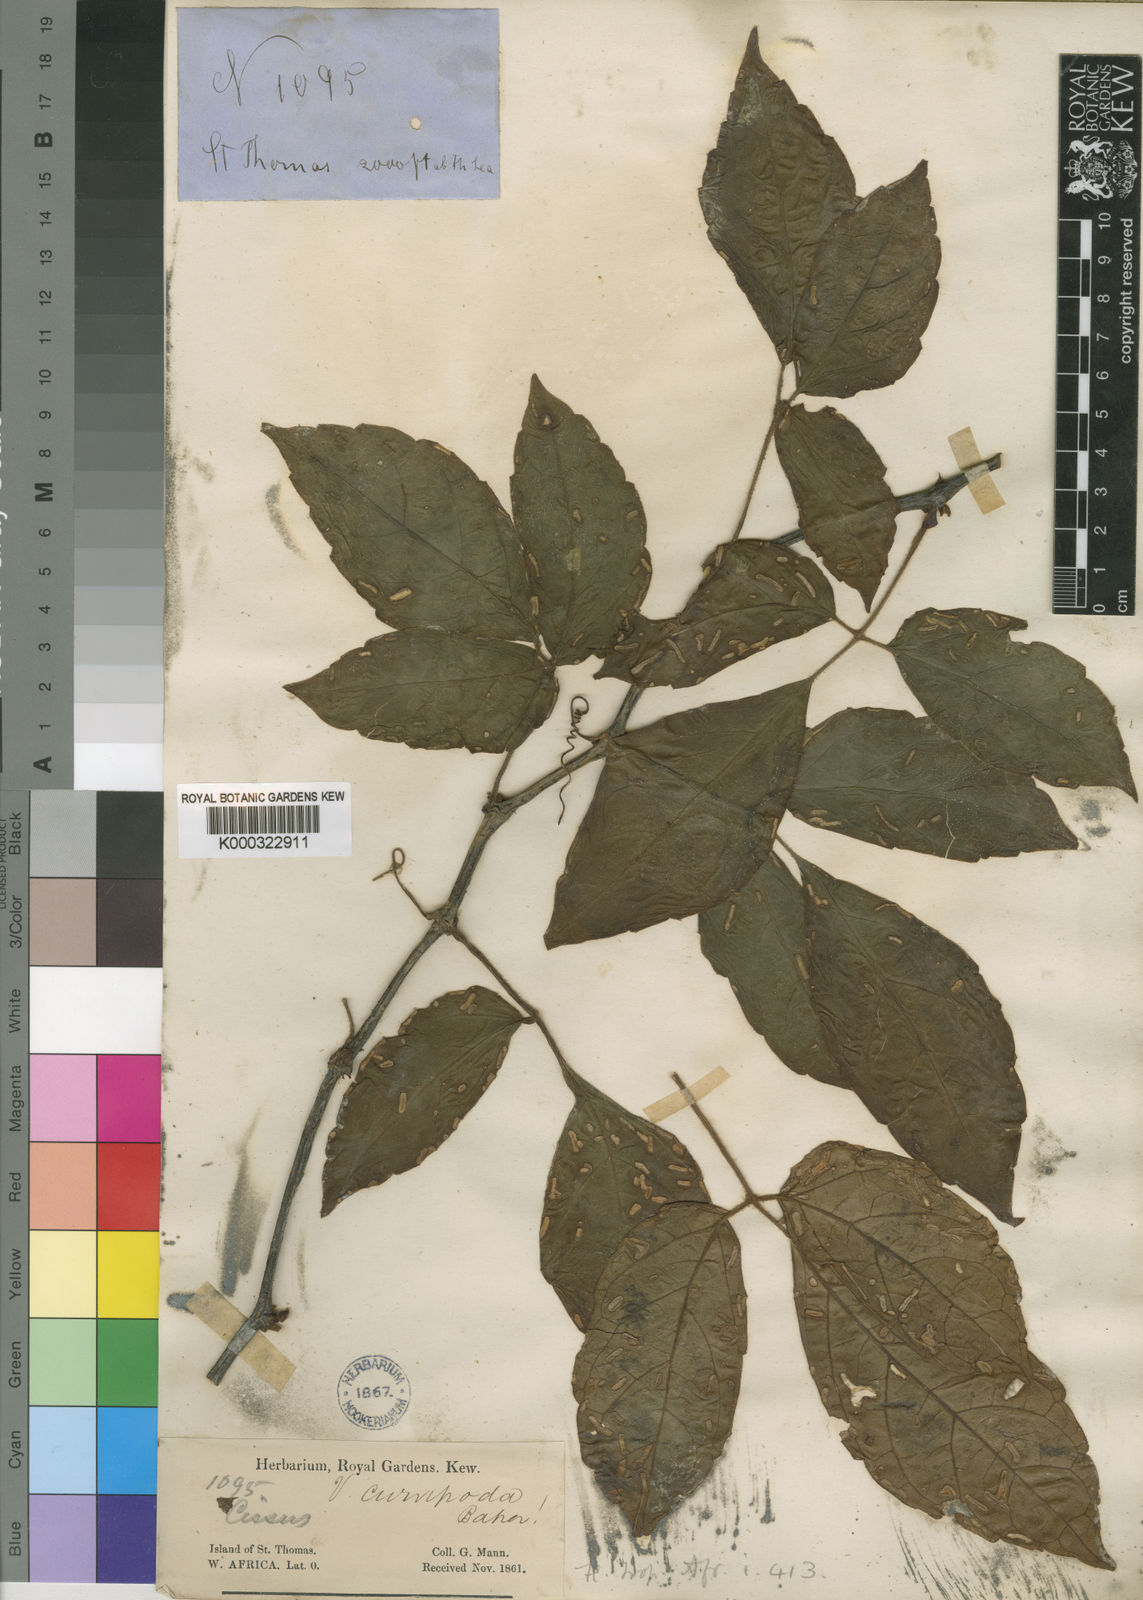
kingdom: Plantae
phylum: Tracheophyta
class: Magnoliopsida
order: Vitales
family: Vitaceae
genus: Cyphostemma
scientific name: Cyphostemma curvipodum
